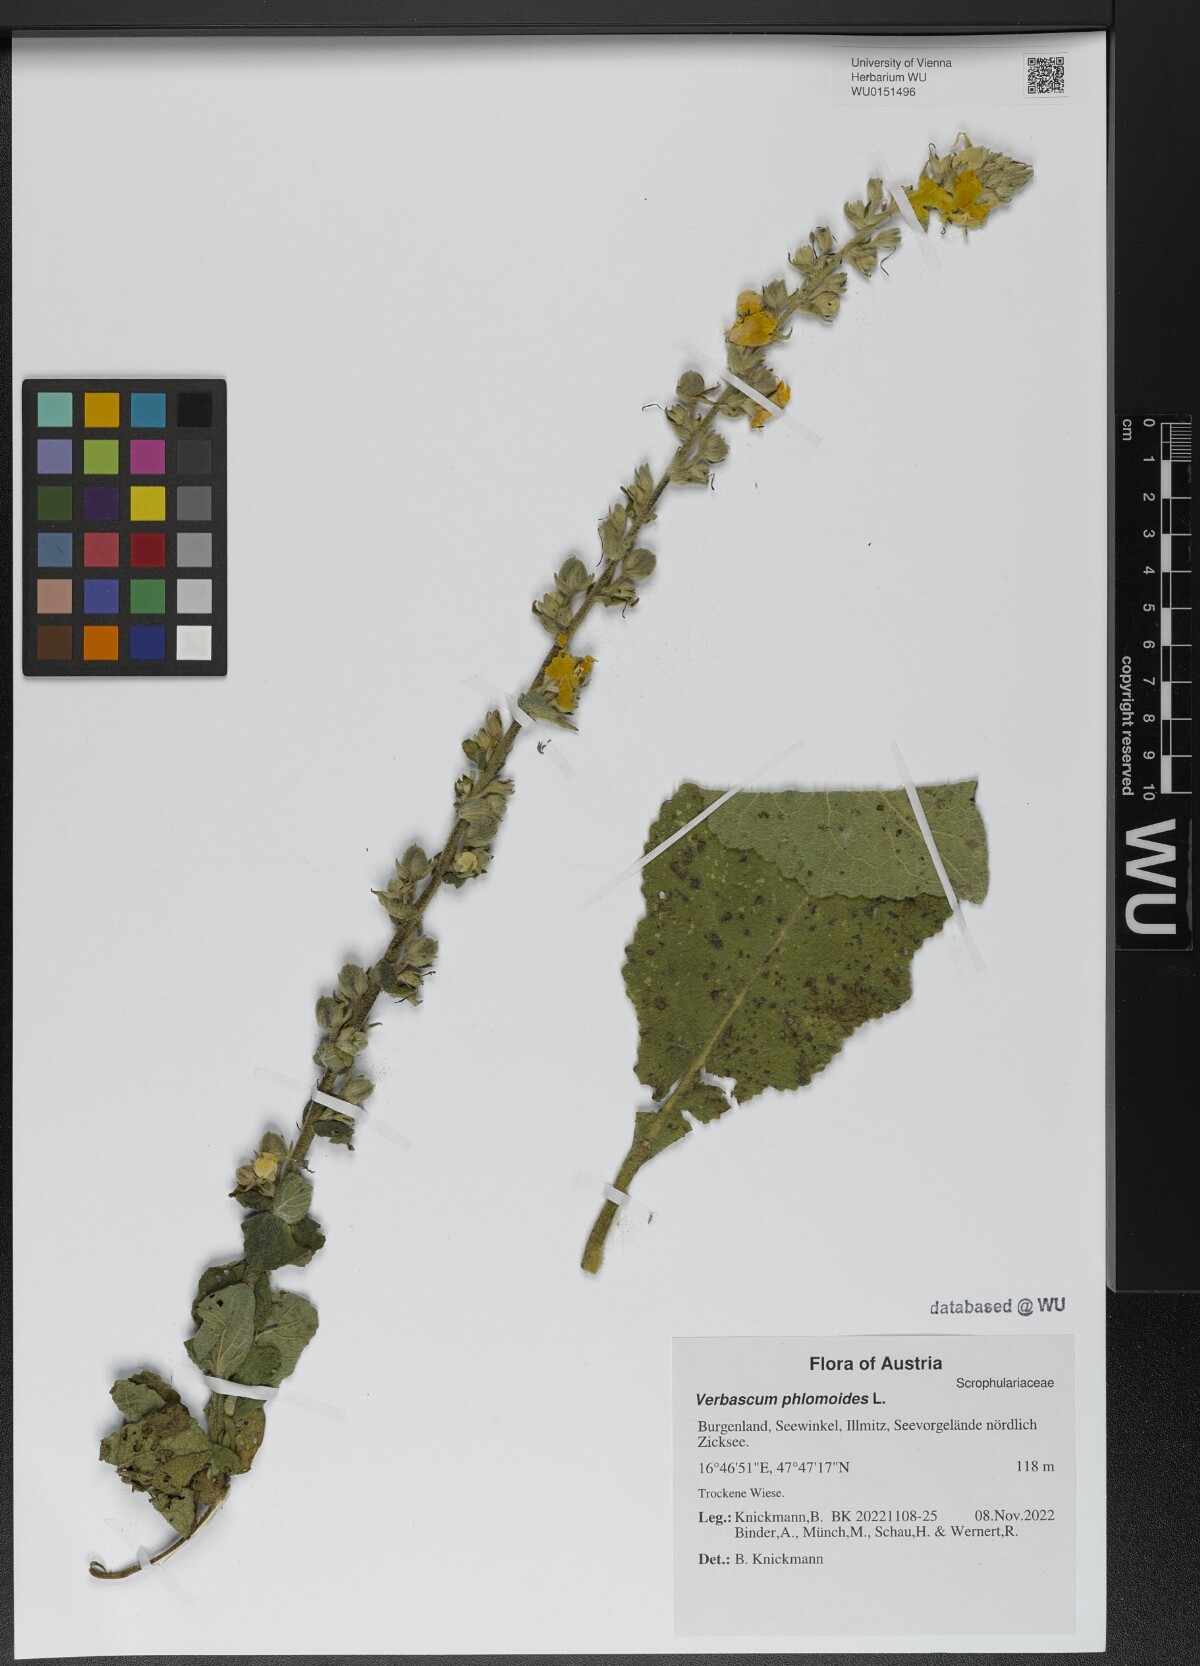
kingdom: Plantae
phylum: Tracheophyta
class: Magnoliopsida
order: Lamiales
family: Scrophulariaceae
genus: Verbascum
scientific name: Verbascum phlomoides
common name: Orange mullein
